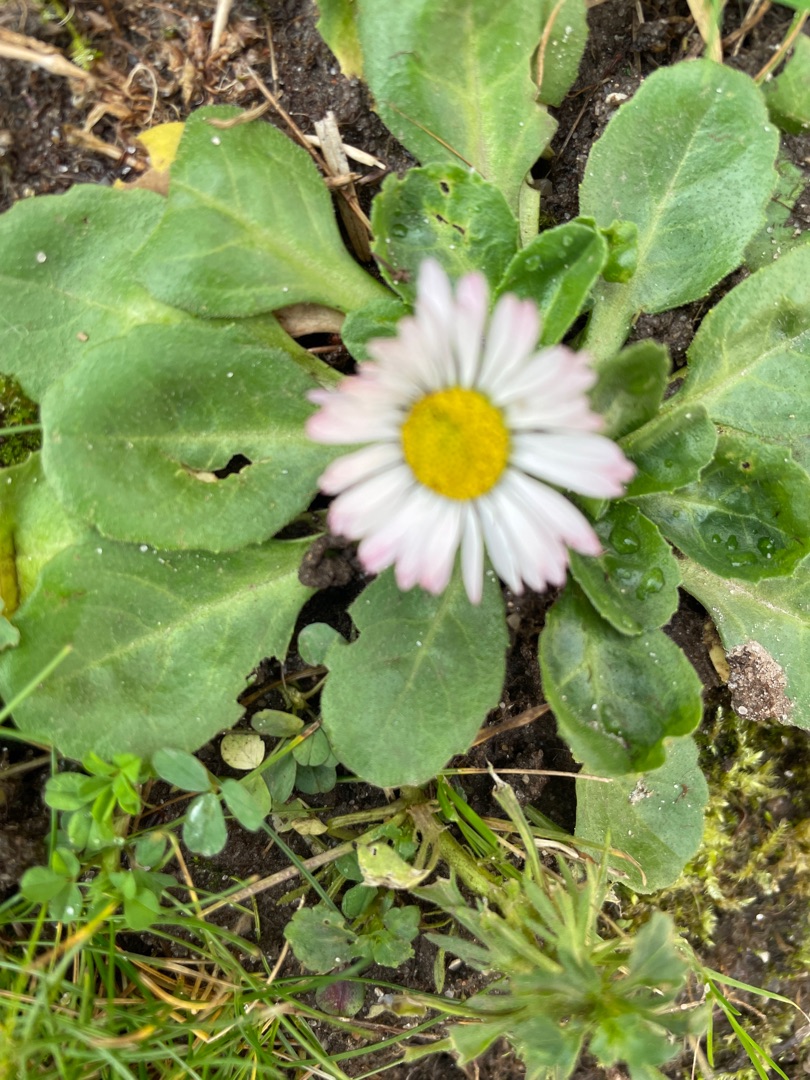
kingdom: Plantae
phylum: Tracheophyta
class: Magnoliopsida
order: Asterales
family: Asteraceae
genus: Bellis
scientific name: Bellis perennis
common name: Tusindfryd
